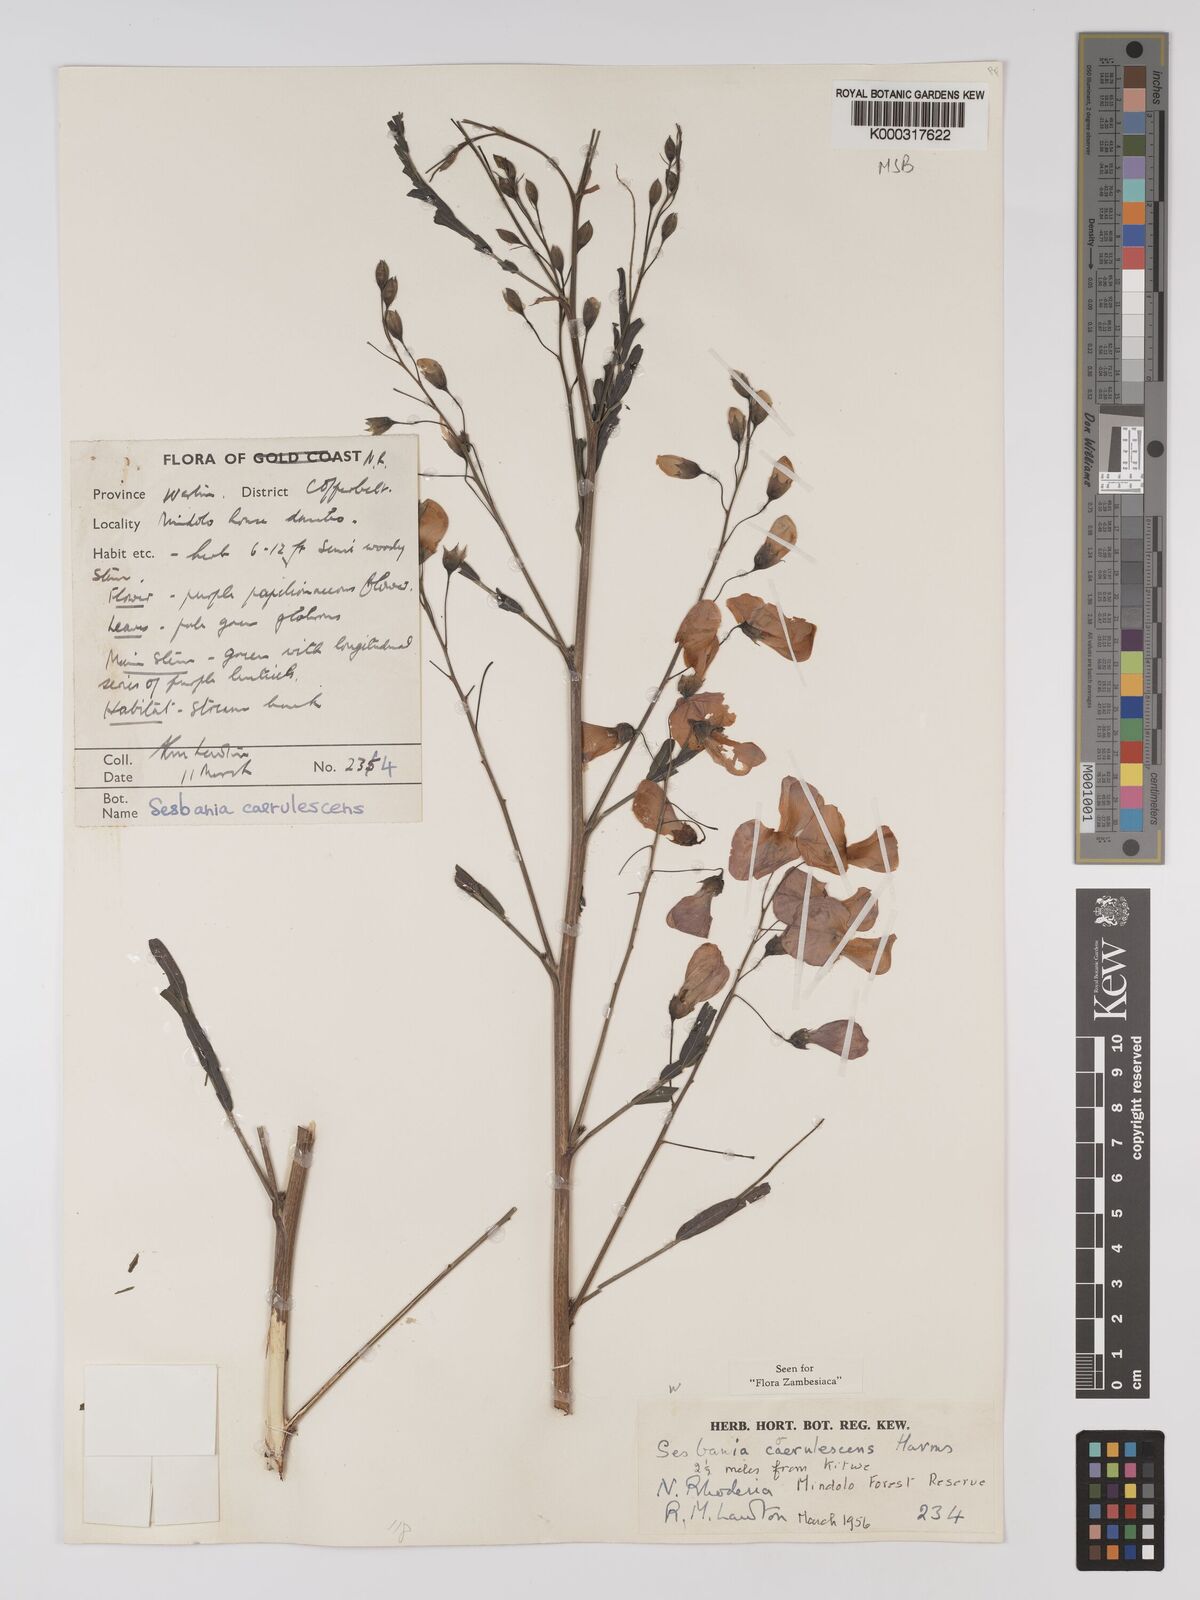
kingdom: Plantae
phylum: Tracheophyta
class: Magnoliopsida
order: Fabales
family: Fabaceae
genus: Sesbania
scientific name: Sesbania coerulescens
